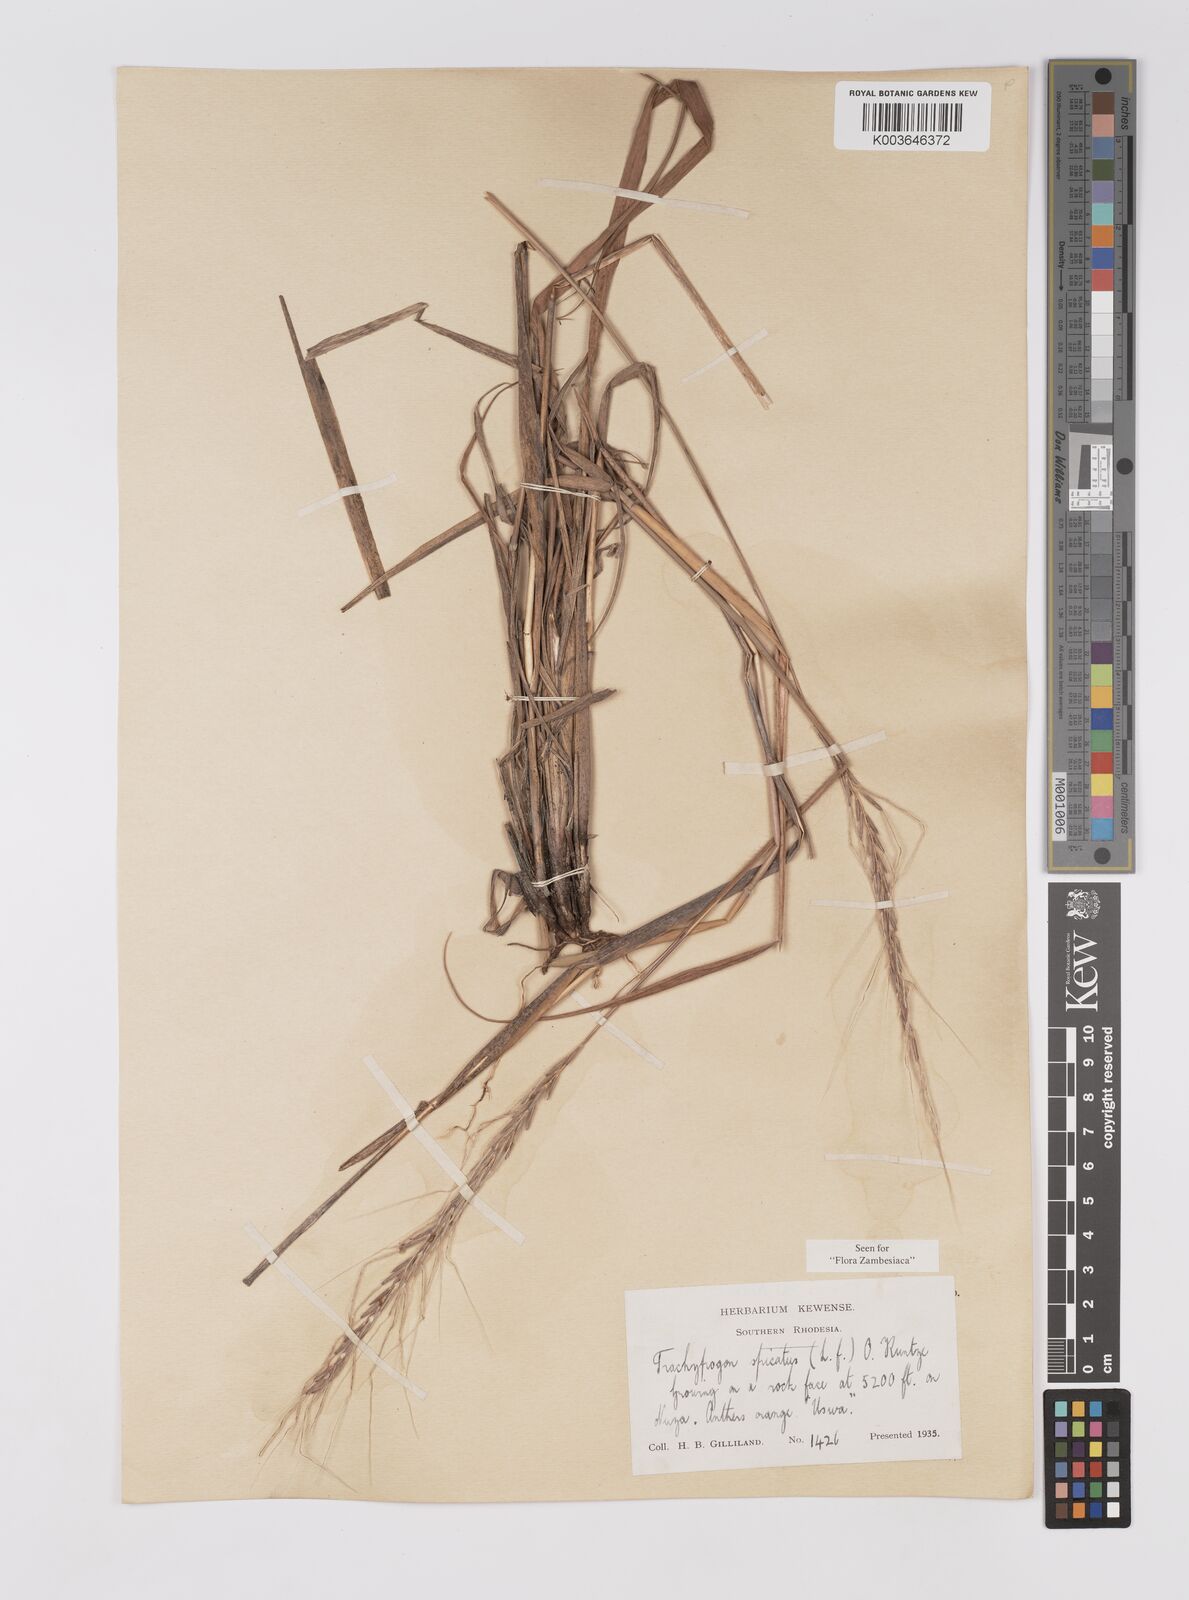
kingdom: Plantae
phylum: Tracheophyta
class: Liliopsida
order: Poales
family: Poaceae
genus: Trachypogon
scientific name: Trachypogon spicatus
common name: Crinkle-awn
